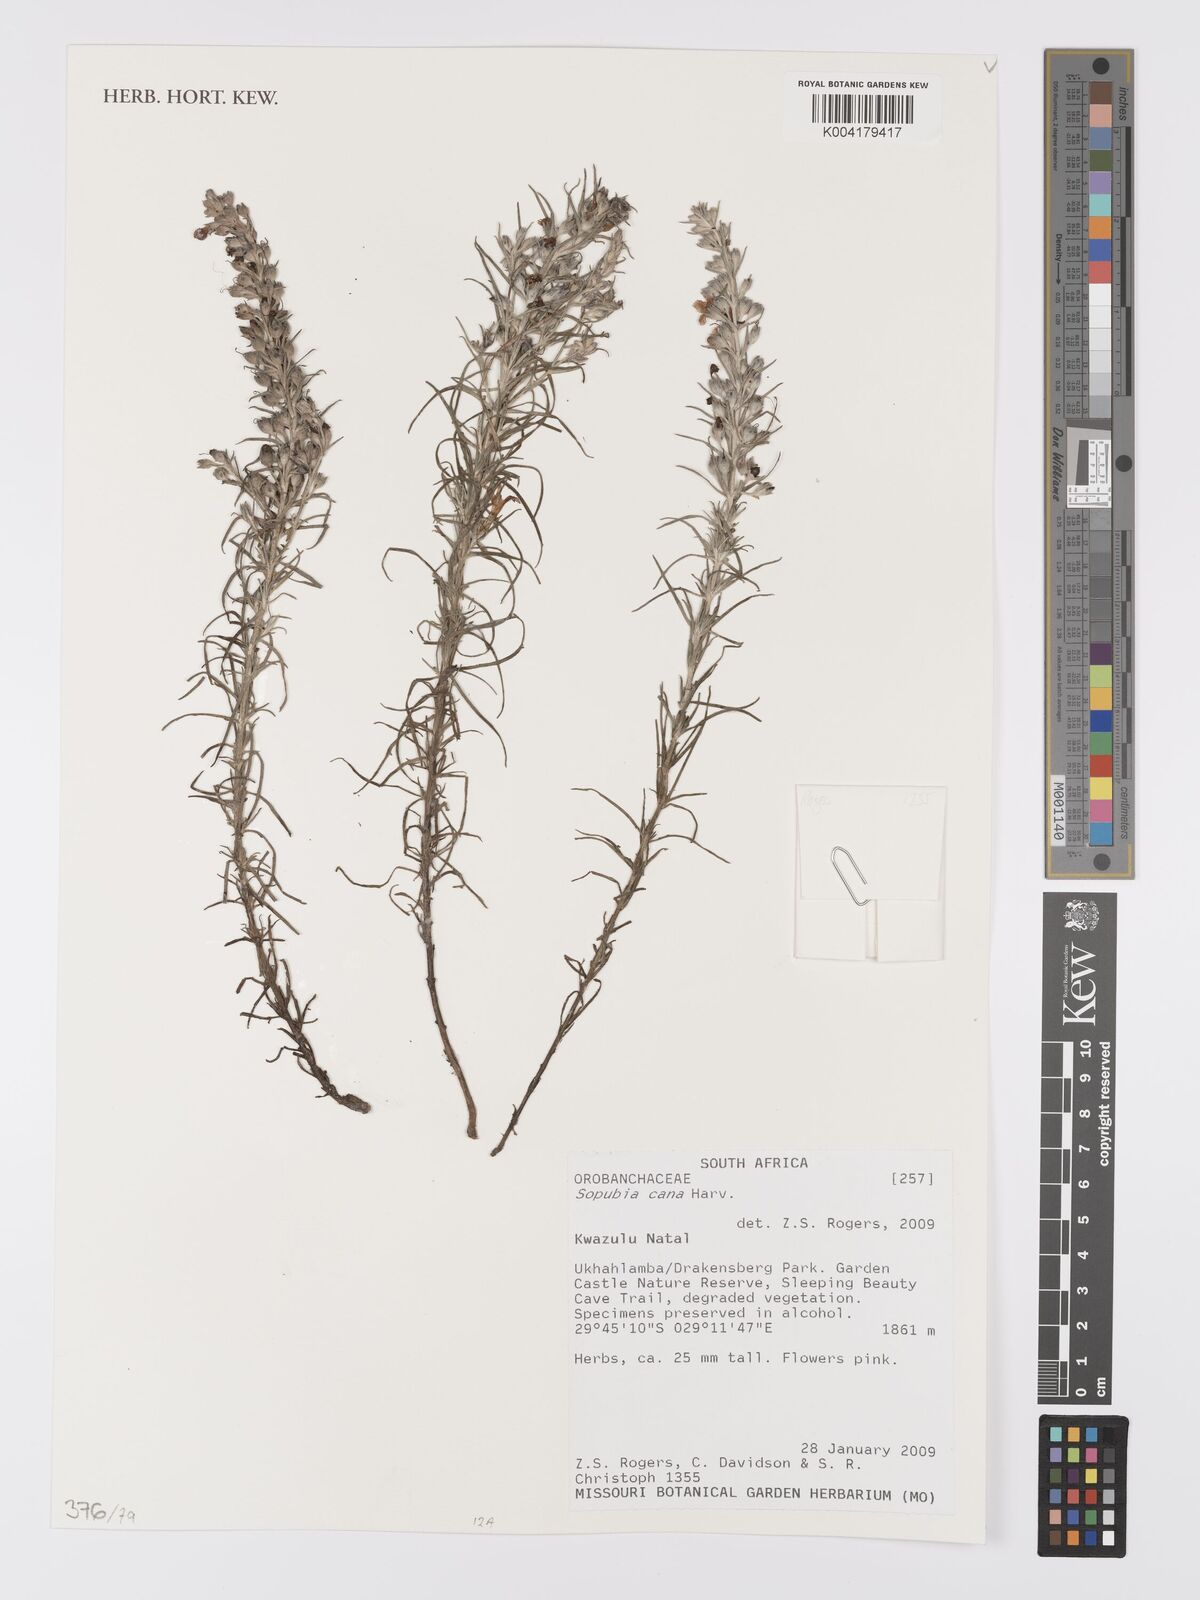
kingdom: Plantae
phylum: Tracheophyta
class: Magnoliopsida
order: Lamiales
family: Orobanchaceae
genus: Sopubia
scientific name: Sopubia cana
